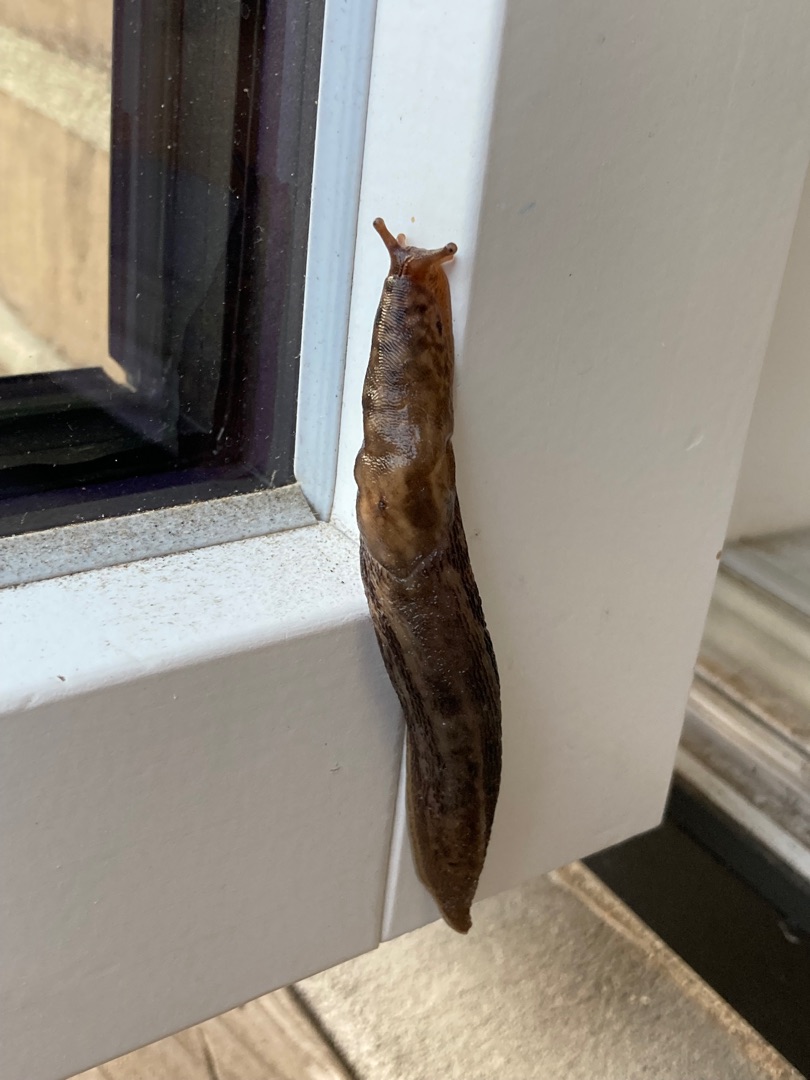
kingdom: Animalia
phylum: Mollusca
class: Gastropoda
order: Stylommatophora
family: Limacidae
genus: Limax
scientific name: Limax maximus
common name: Pantersnegl
